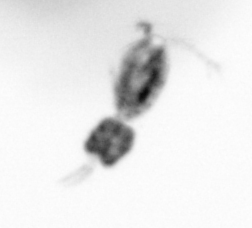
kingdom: Animalia
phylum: Arthropoda
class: Copepoda
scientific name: Copepoda
